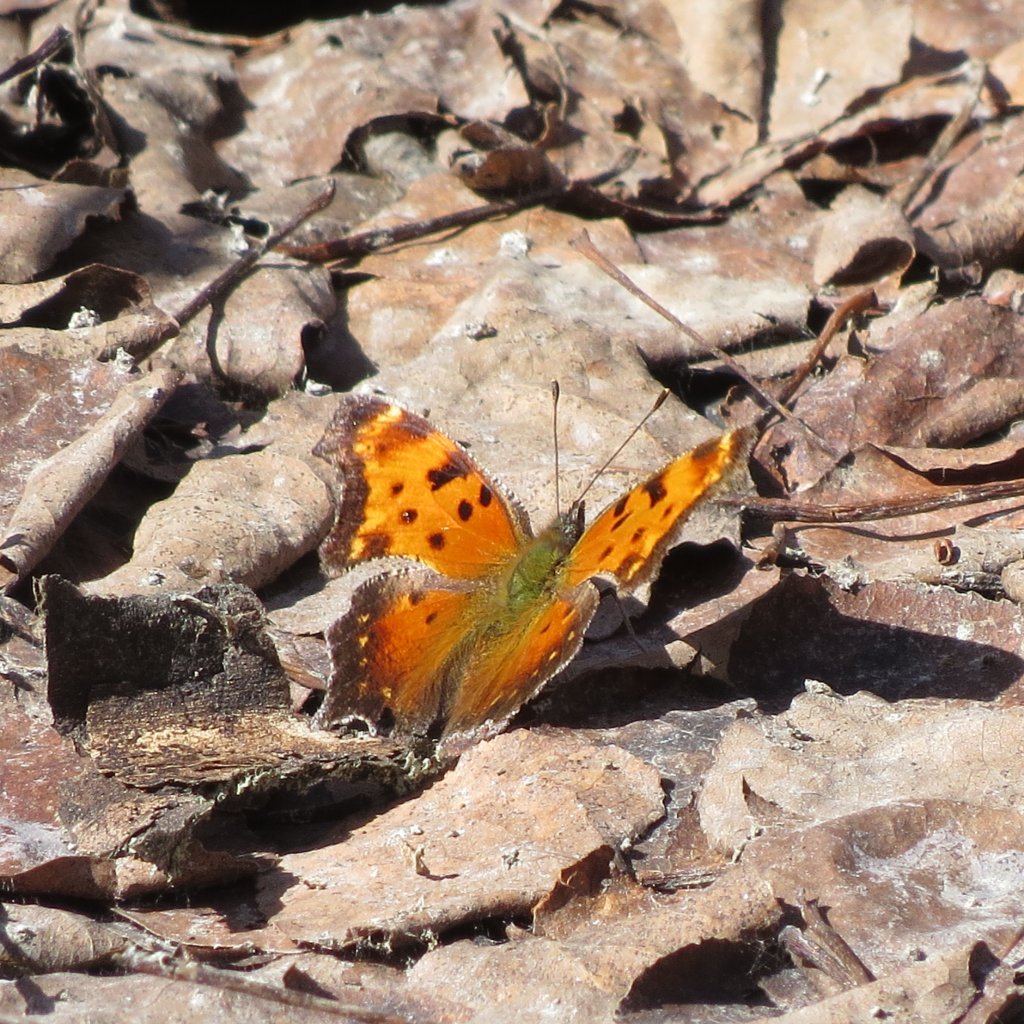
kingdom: Animalia
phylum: Arthropoda
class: Insecta
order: Lepidoptera
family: Nymphalidae
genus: Polygonia
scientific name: Polygonia gracilis
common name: Hoary Comma
